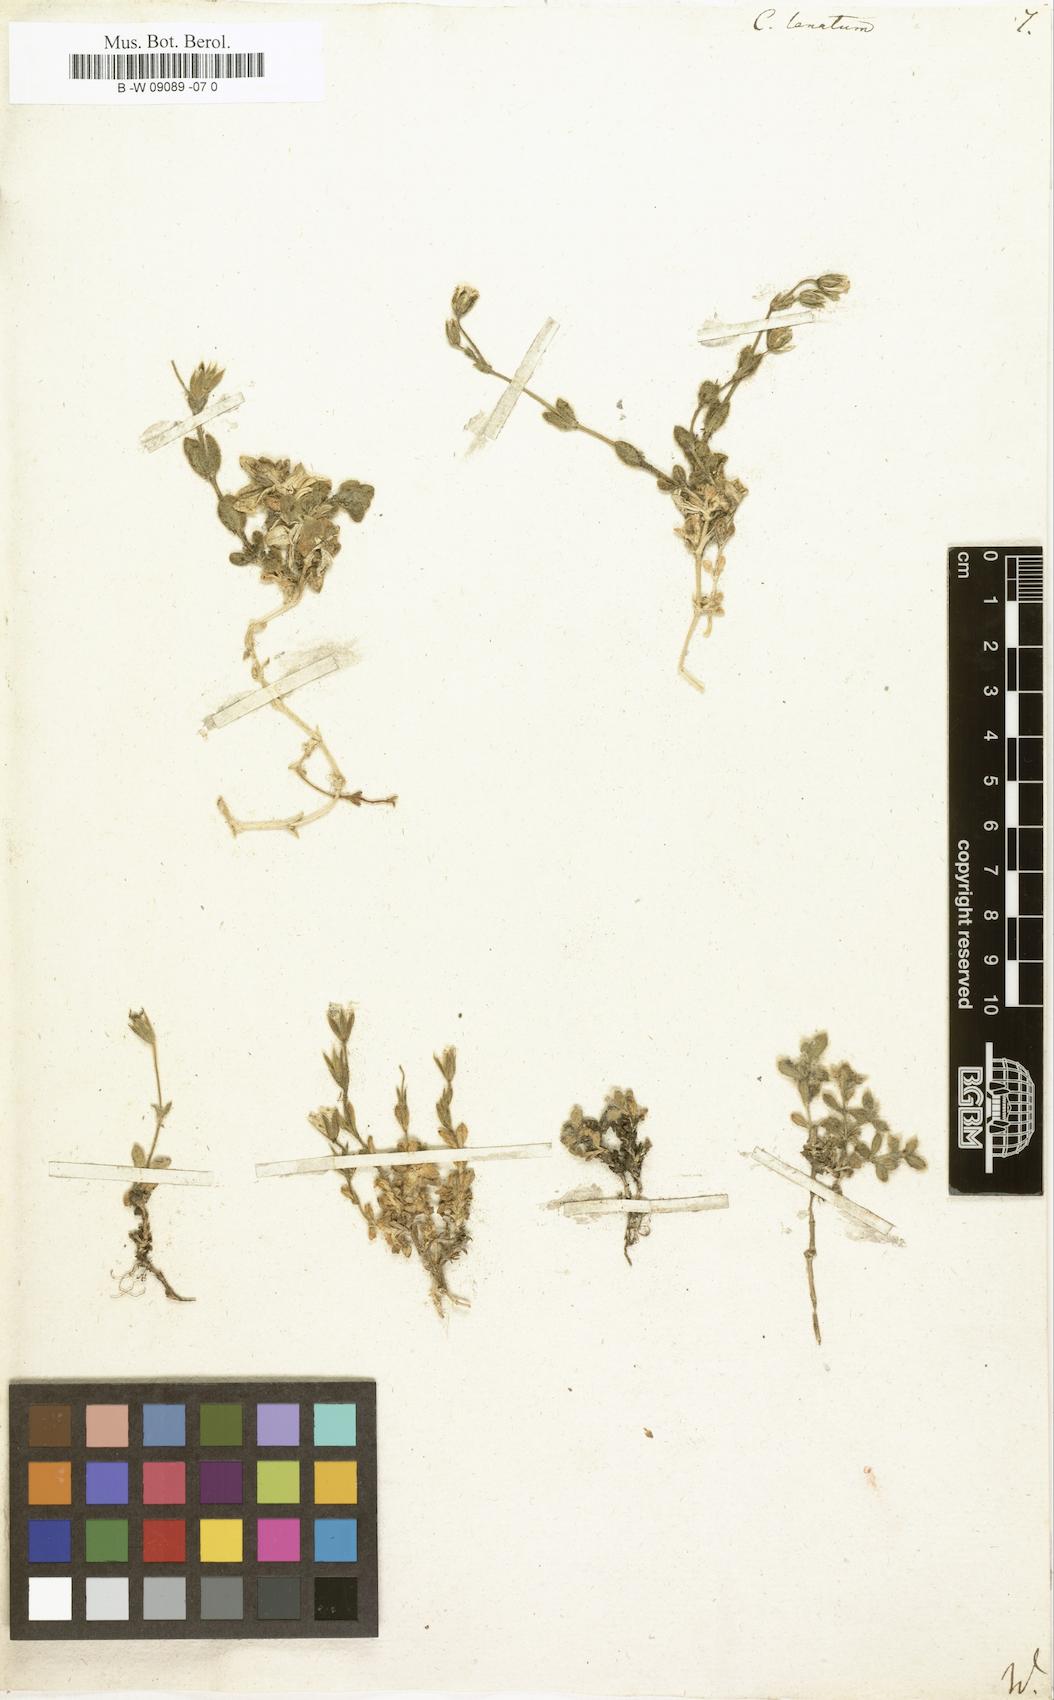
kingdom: Plantae
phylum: Tracheophyta
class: Magnoliopsida
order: Caryophyllales
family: Caryophyllaceae
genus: Cerastium
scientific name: Cerastium alpinum
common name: Alpine mouse-ear
